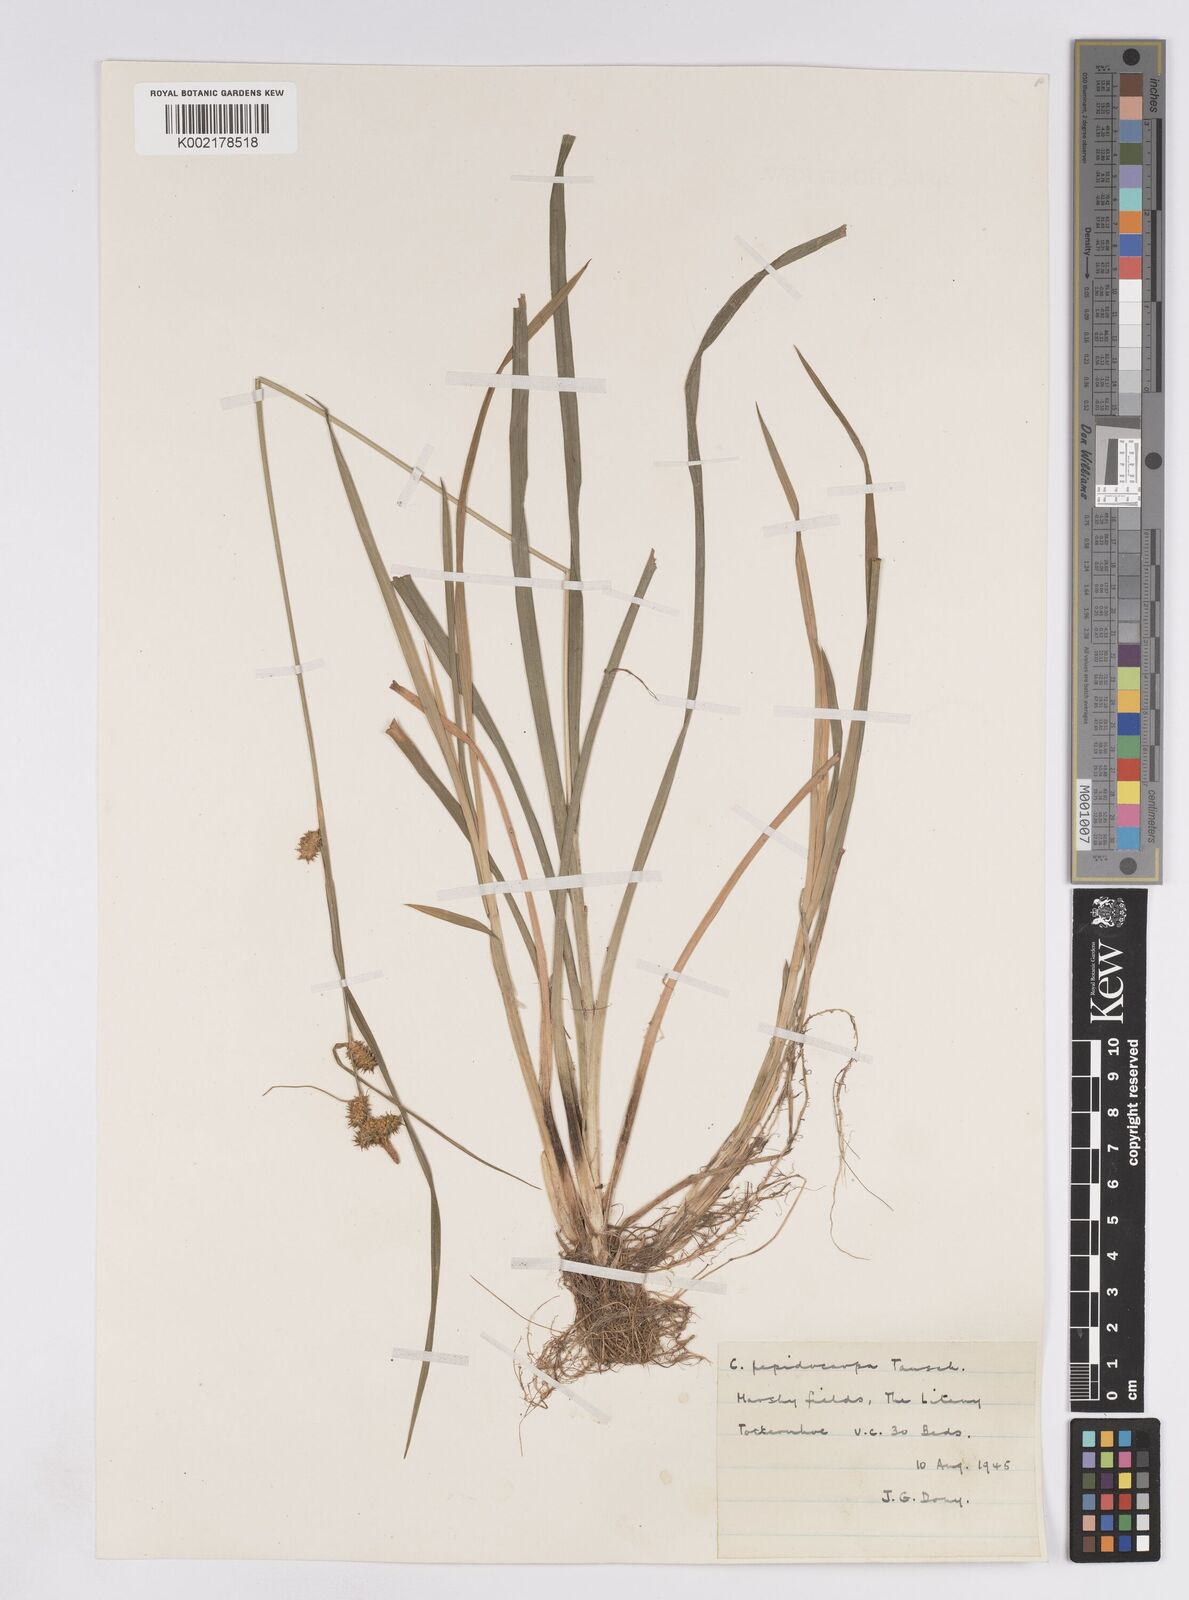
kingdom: Plantae
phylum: Tracheophyta
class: Liliopsida
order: Poales
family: Cyperaceae
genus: Carex
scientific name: Carex lepidocarpa
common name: Long-stalked yellow-sedge
